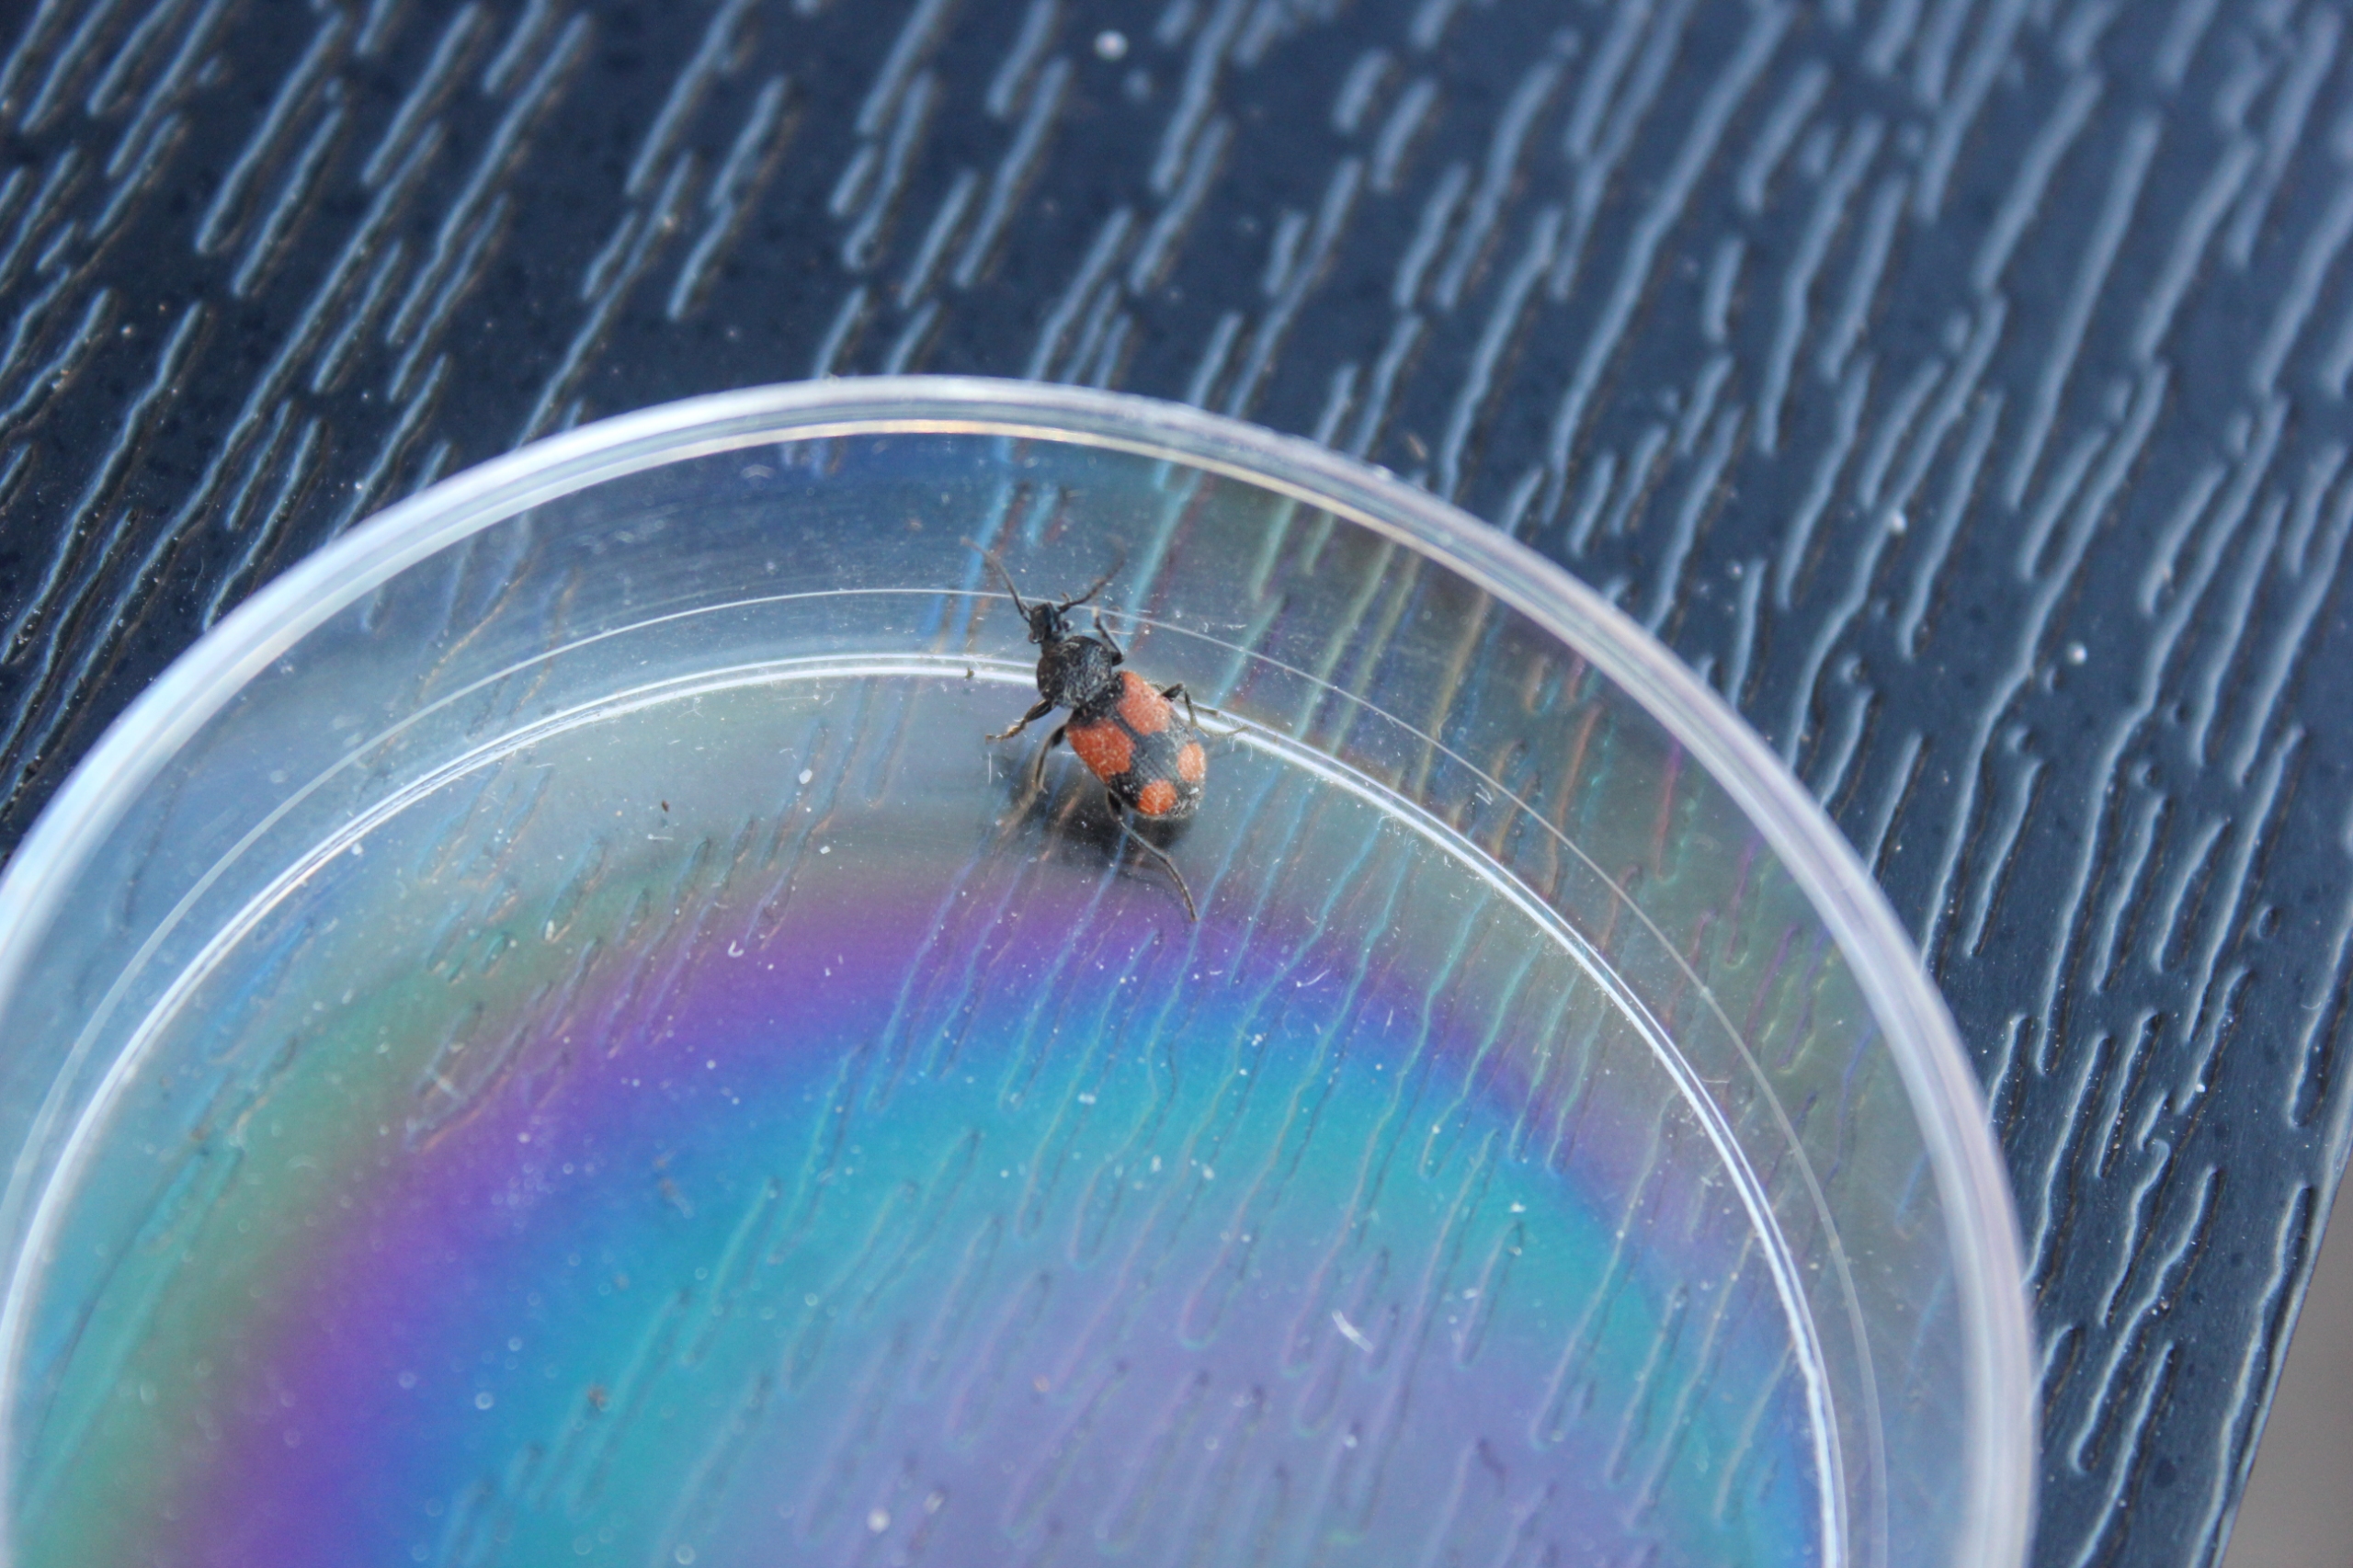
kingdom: Animalia
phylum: Arthropoda
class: Insecta
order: Coleoptera
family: Carabidae
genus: Panagaeus
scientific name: Panagaeus cruxmajor
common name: Stor korsløber
